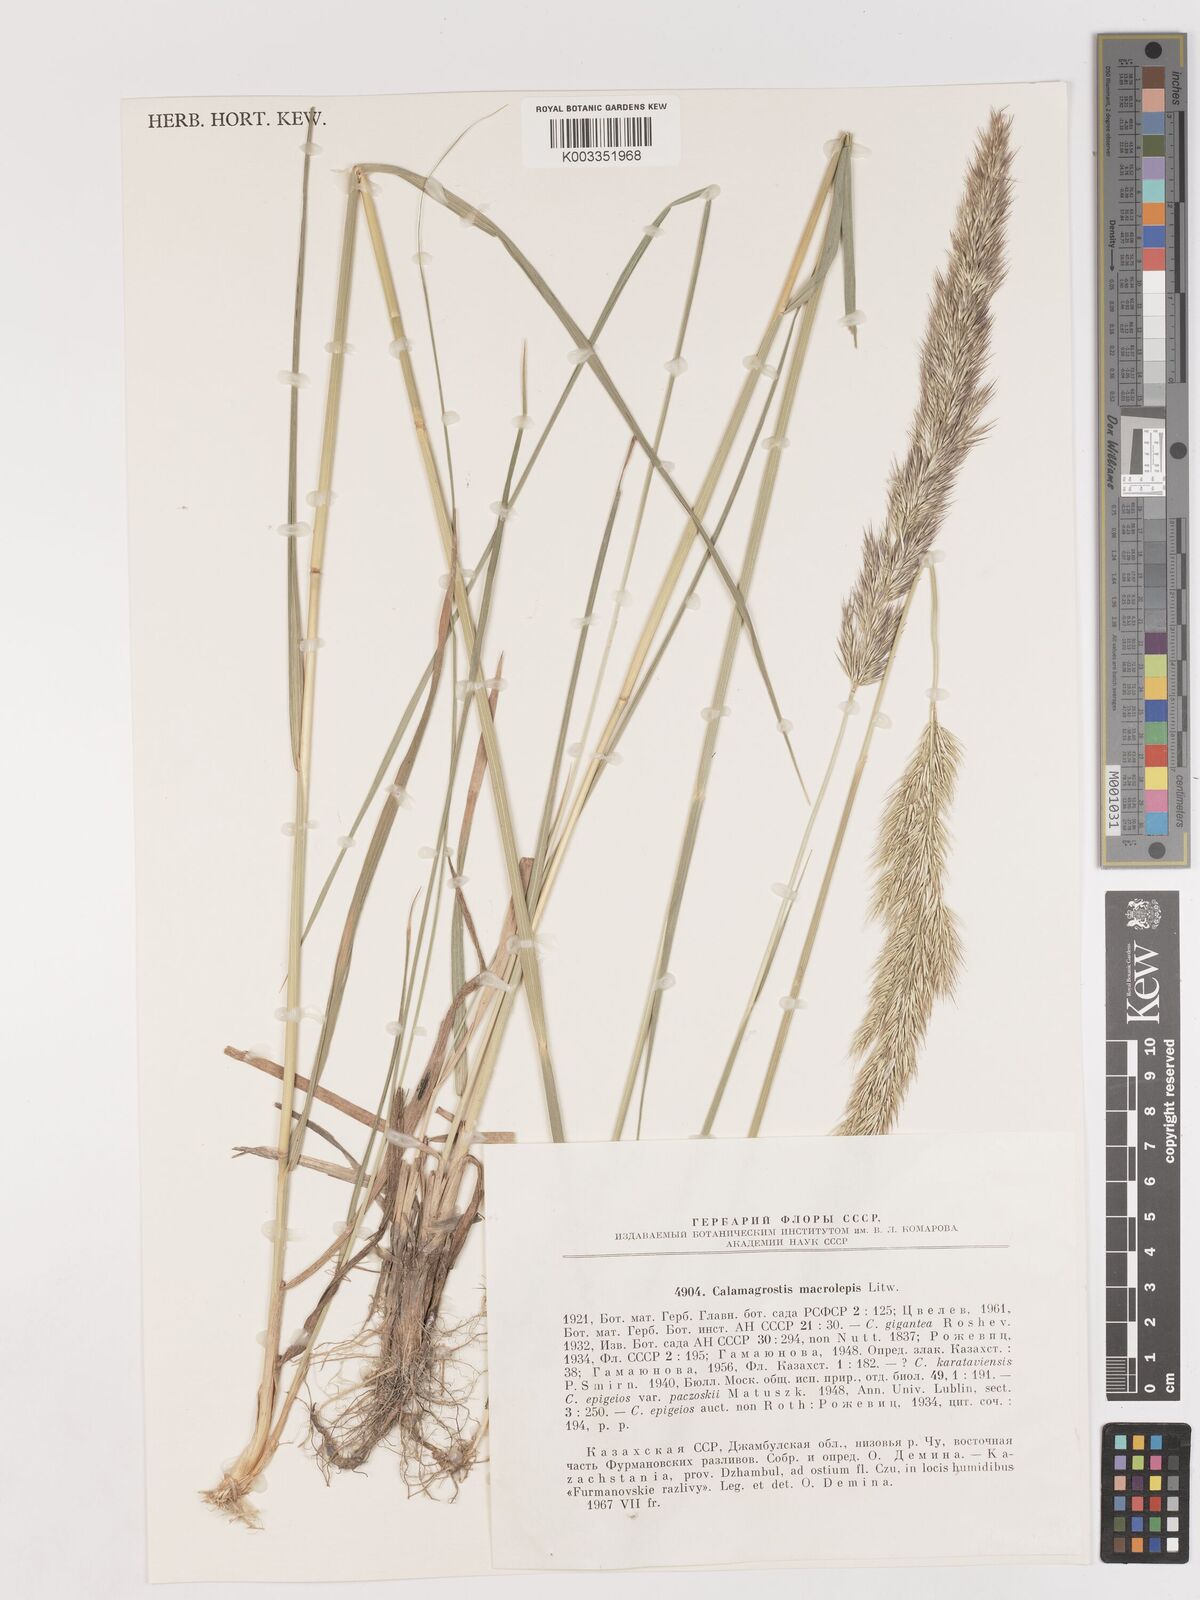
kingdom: Plantae
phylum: Tracheophyta
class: Liliopsida
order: Poales
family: Poaceae
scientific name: Poaceae
